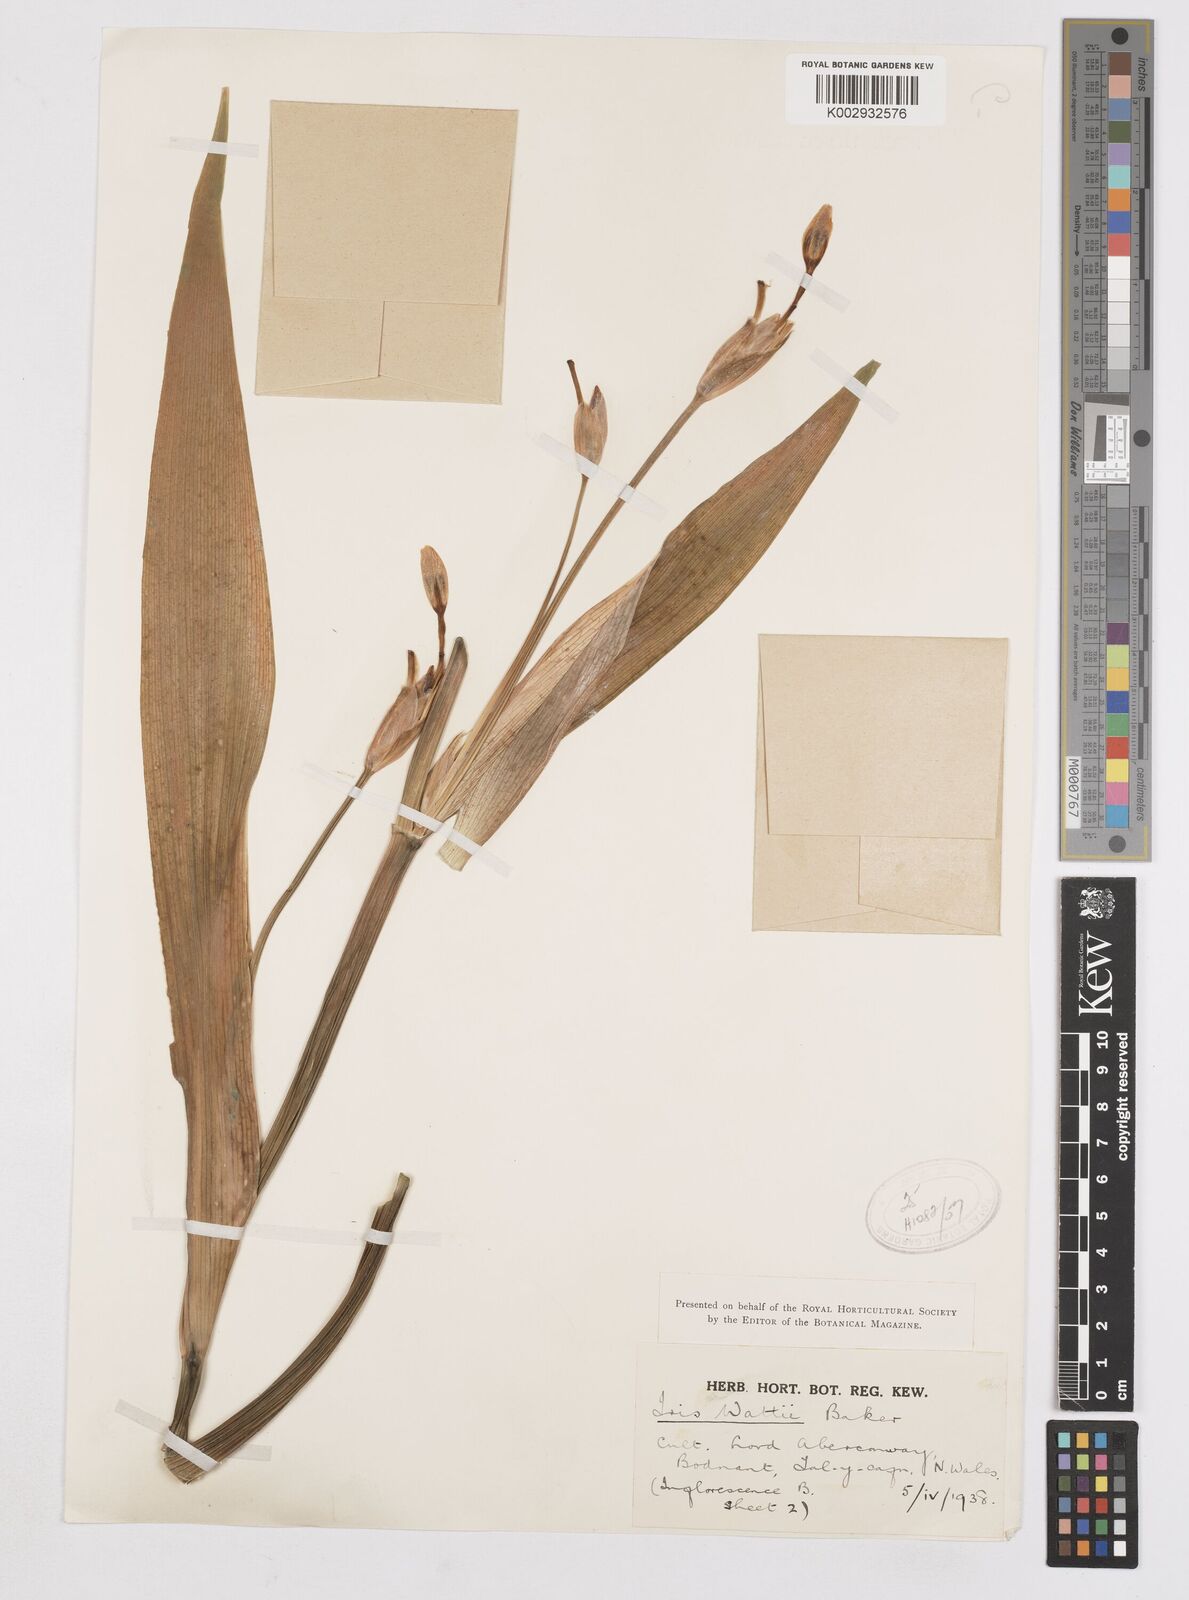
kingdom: Plantae
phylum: Tracheophyta
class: Liliopsida
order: Asparagales
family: Iridaceae
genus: Iris
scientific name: Iris wattii
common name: Fan-shape iris
